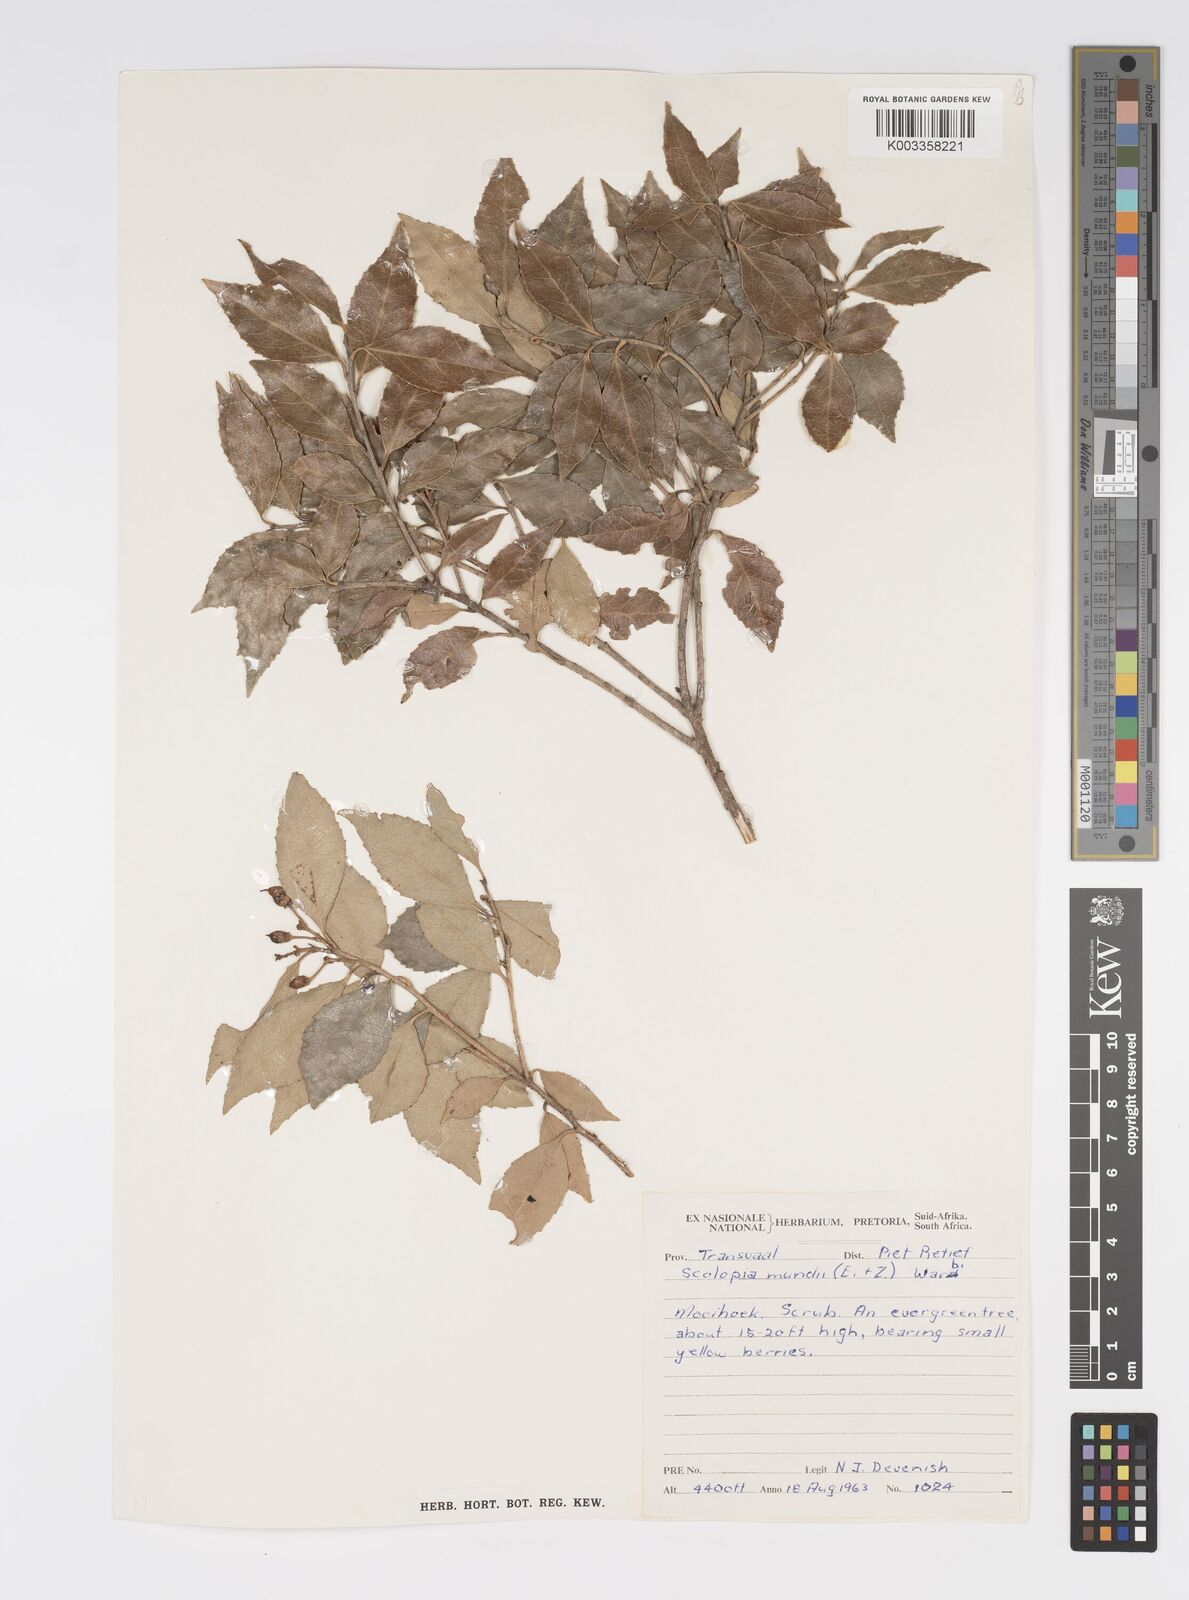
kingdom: Plantae
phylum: Tracheophyta
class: Magnoliopsida
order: Malpighiales
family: Salicaceae
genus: Scolopia
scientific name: Scolopia mundii
